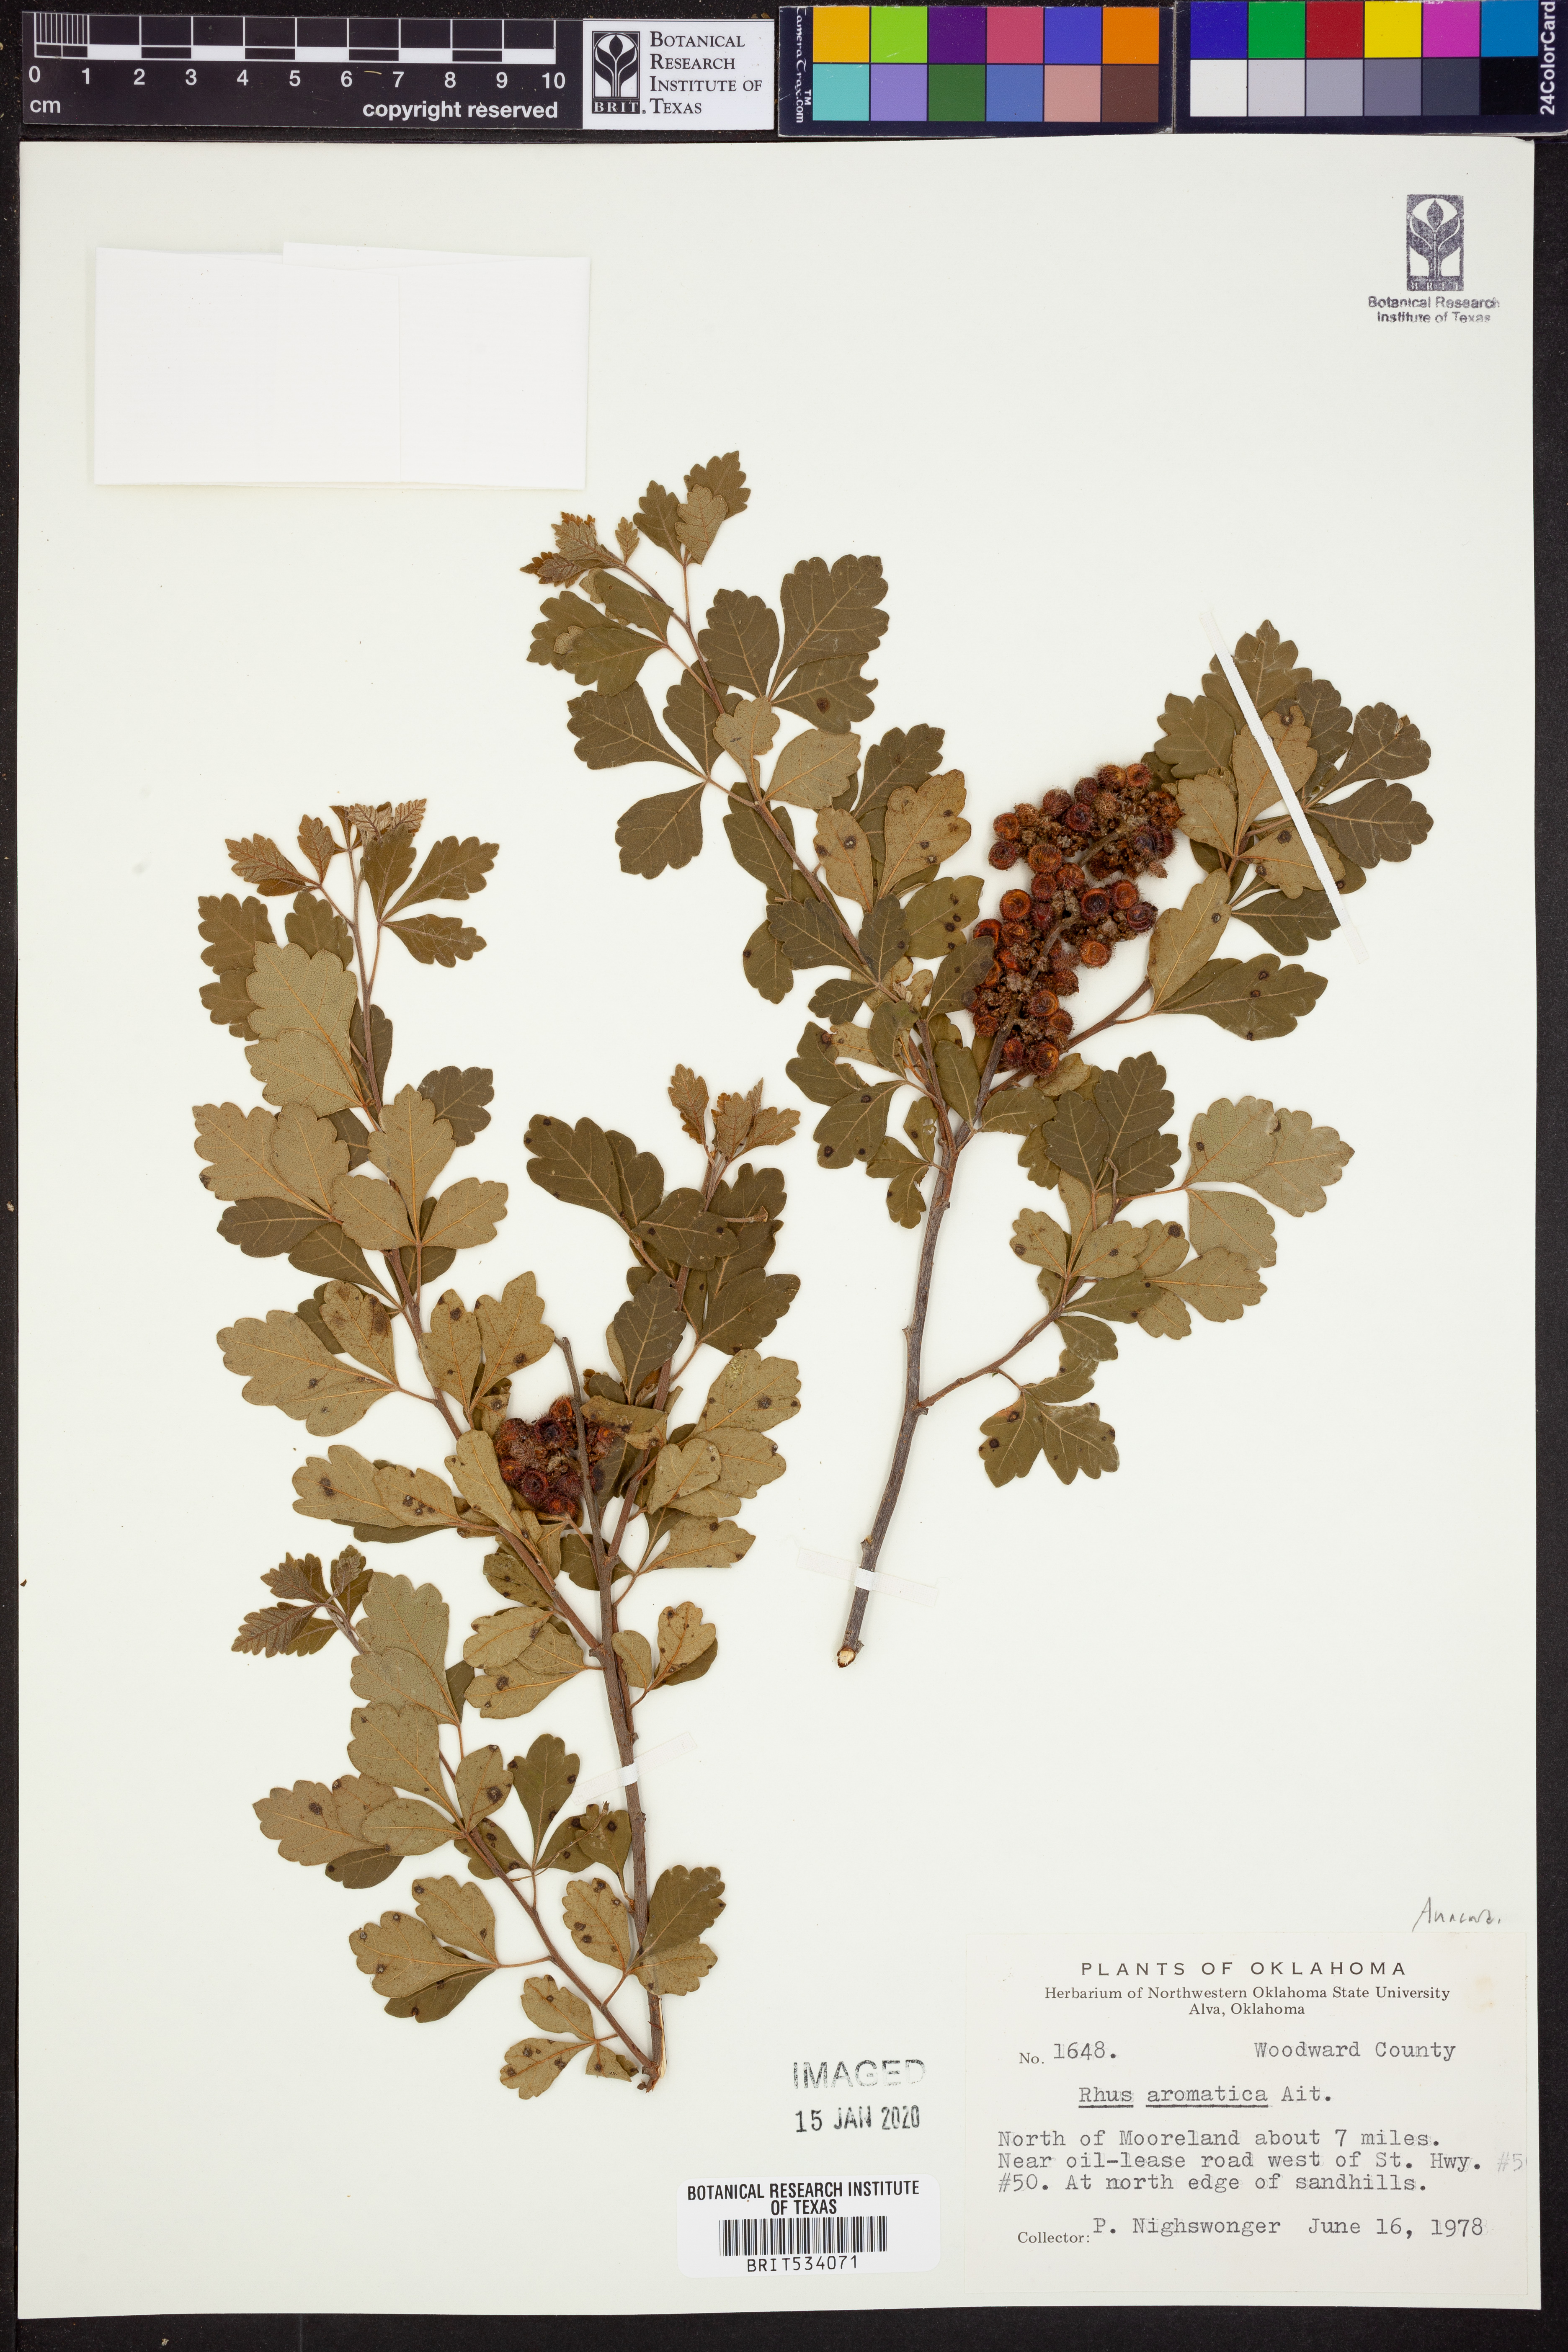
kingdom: Plantae
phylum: Tracheophyta
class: Magnoliopsida
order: Sapindales
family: Anacardiaceae
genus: Rhus
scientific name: Rhus aromatica
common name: Aromatic sumac
